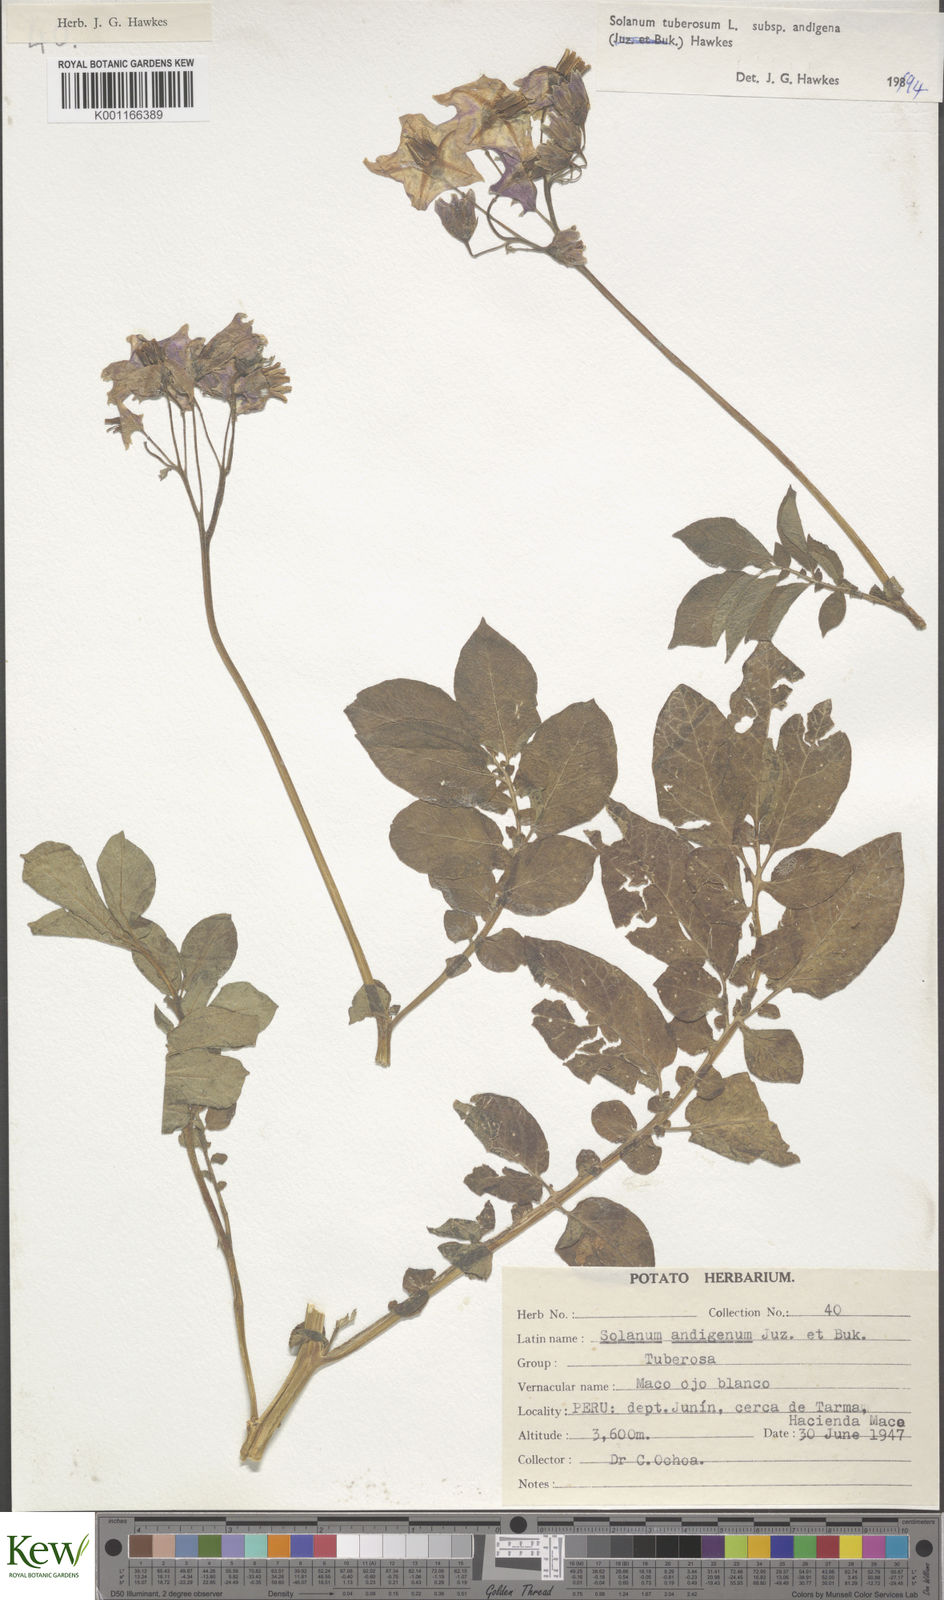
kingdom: Plantae
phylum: Tracheophyta
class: Magnoliopsida
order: Solanales
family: Solanaceae
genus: Solanum
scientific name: Solanum tuberosum
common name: Potato
